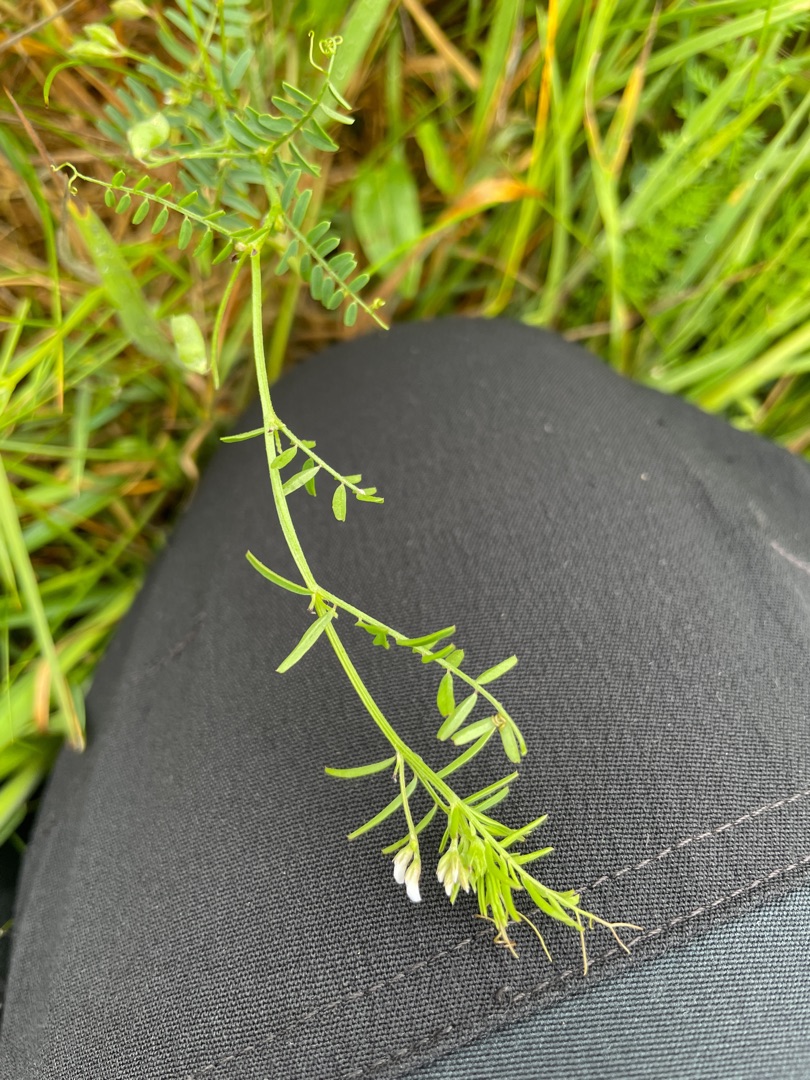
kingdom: Plantae
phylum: Tracheophyta
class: Magnoliopsida
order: Fabales
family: Fabaceae
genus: Vicia
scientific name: Vicia hirsuta
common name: Tofrøet vikke
